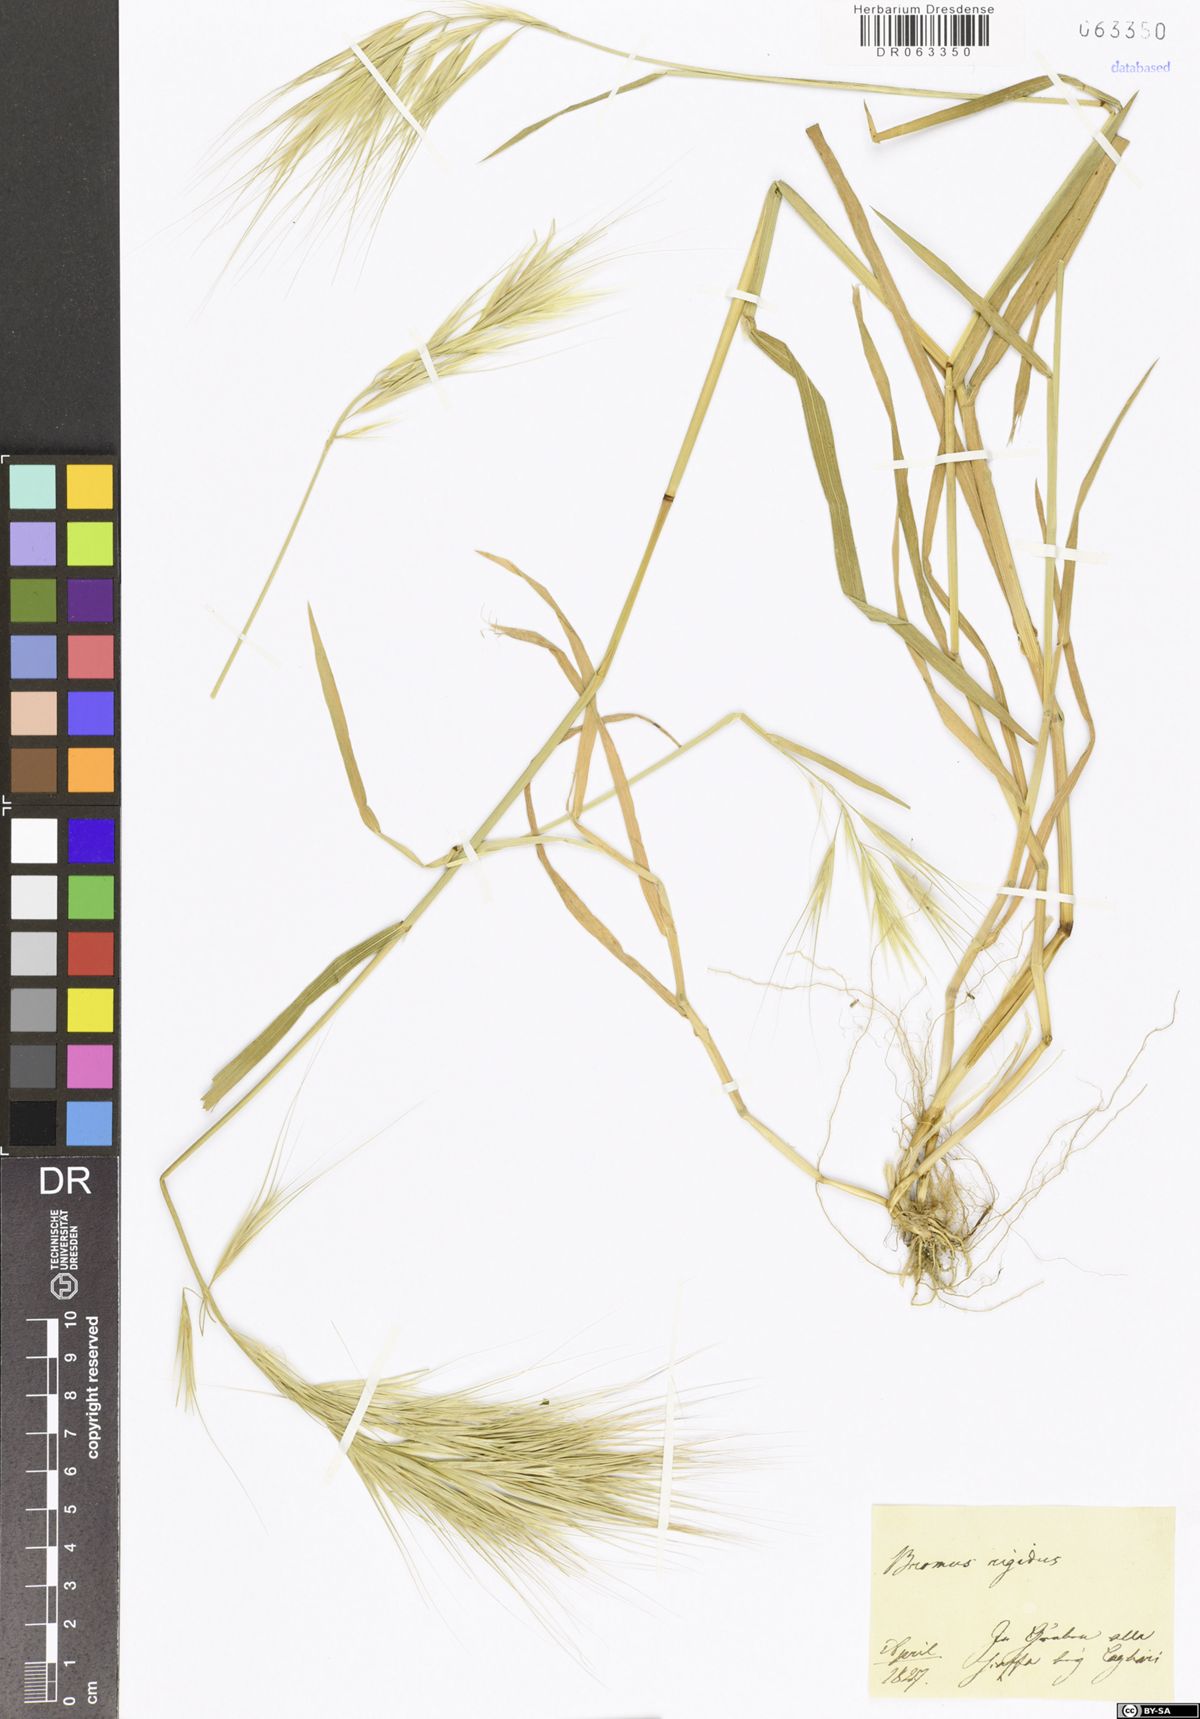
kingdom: Plantae
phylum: Tracheophyta
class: Liliopsida
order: Poales
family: Poaceae
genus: Bromus
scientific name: Bromus rigidus
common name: Ripgut brome
